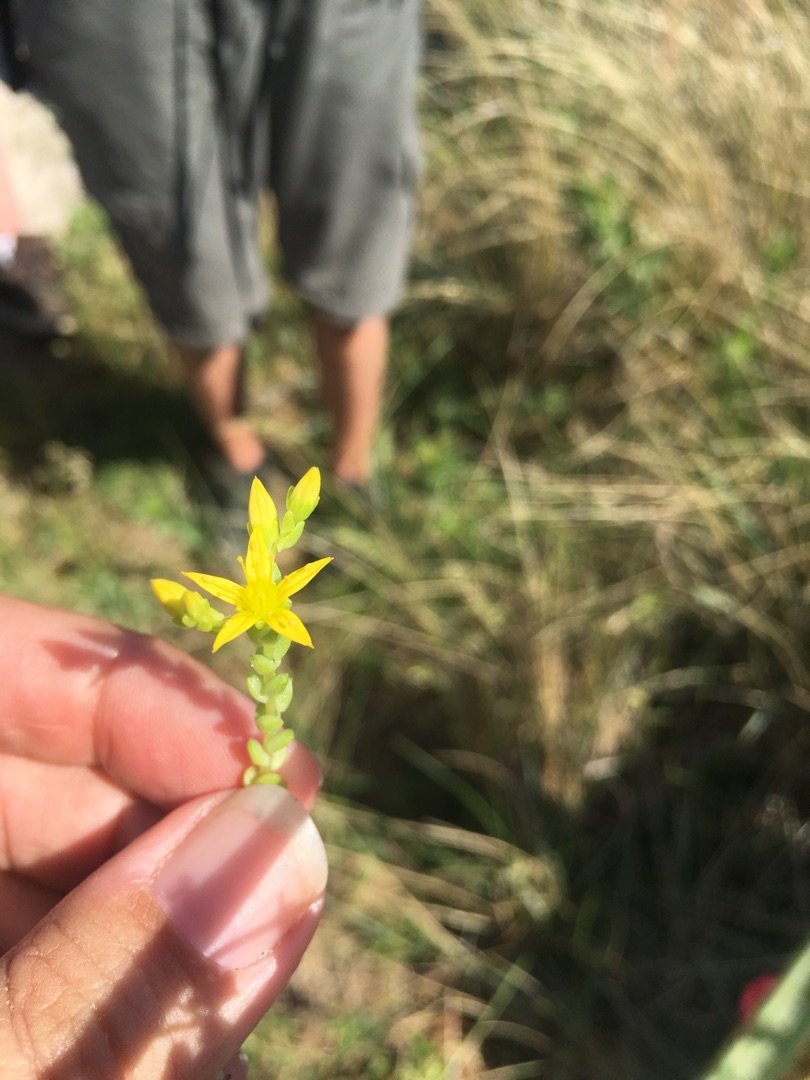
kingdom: Plantae
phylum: Tracheophyta
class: Magnoliopsida
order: Saxifragales
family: Crassulaceae
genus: Sedum
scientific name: Sedum acre
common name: Bidende stenurt
